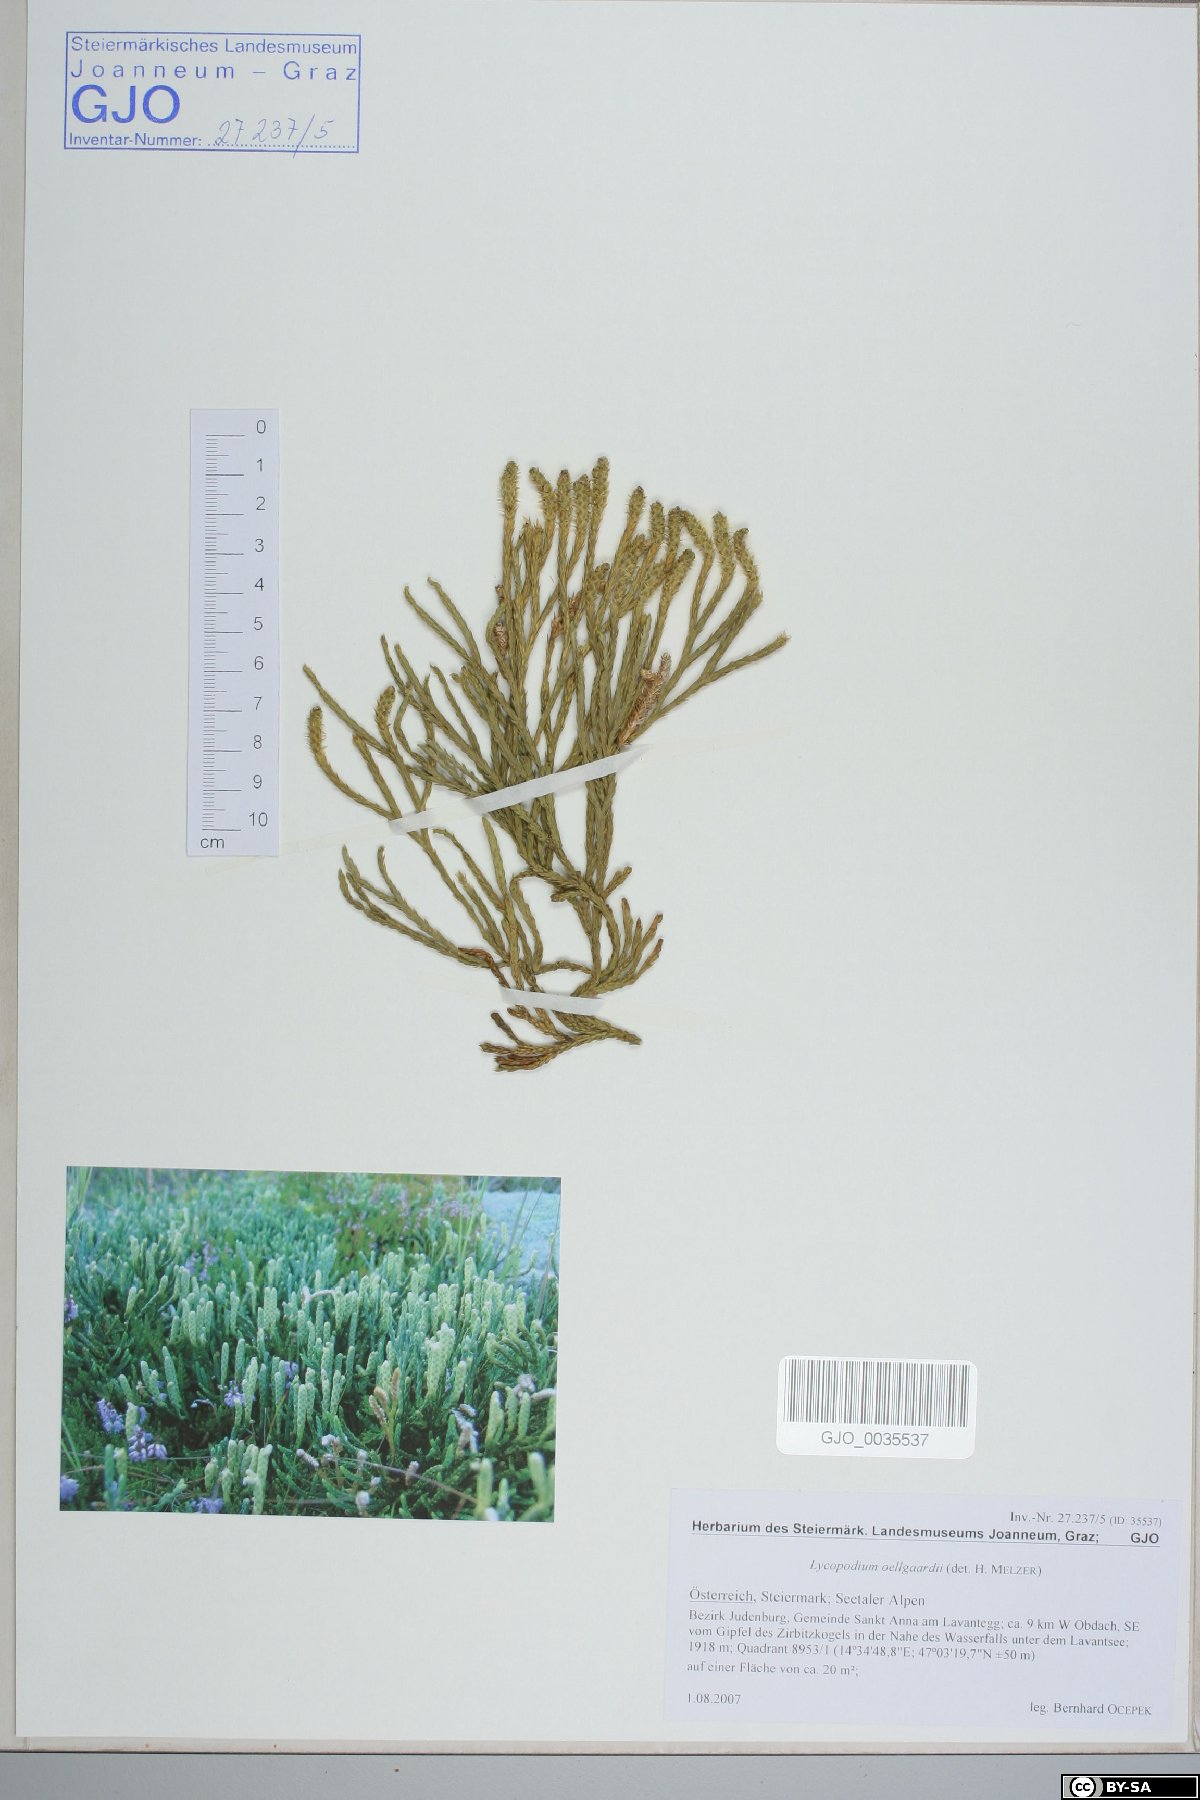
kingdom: Plantae
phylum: Tracheophyta
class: Lycopodiopsida
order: Lycopodiales
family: Lycopodiaceae
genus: Diphasiastrum
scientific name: Diphasiastrum oellgaardii
